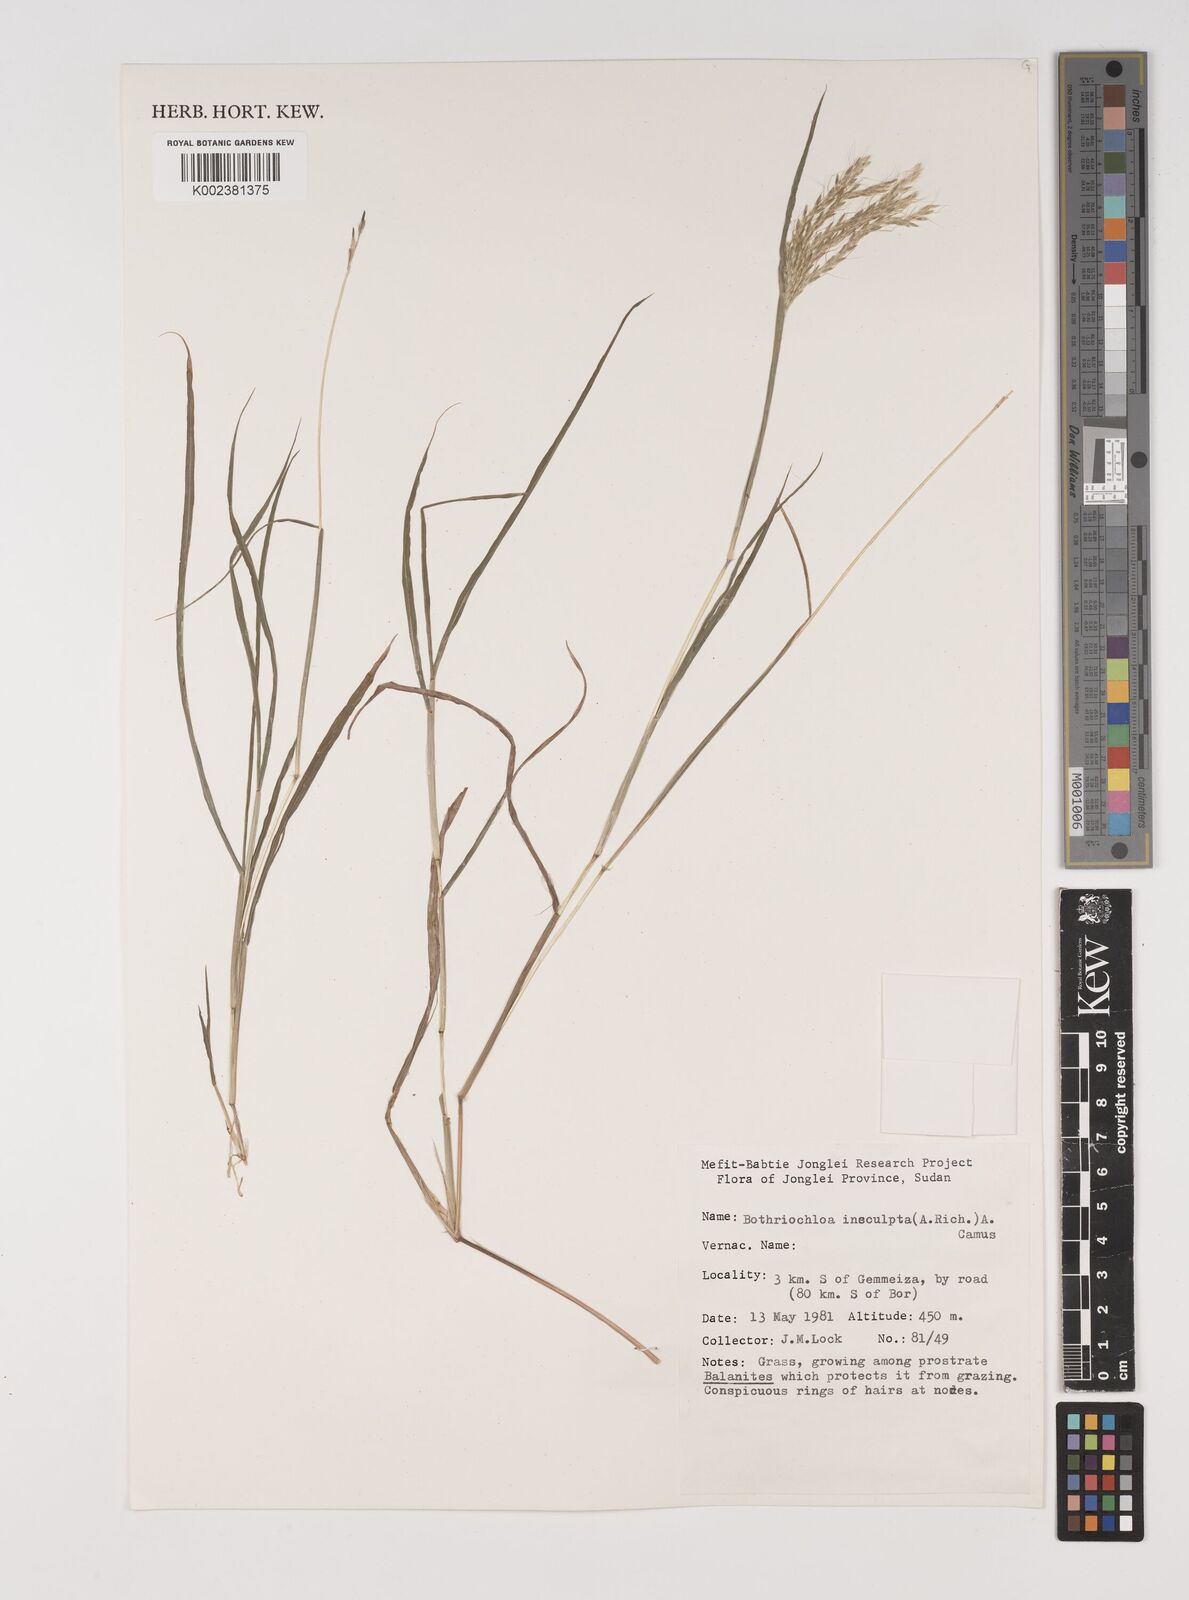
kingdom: Plantae
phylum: Tracheophyta
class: Liliopsida
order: Poales
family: Poaceae
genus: Bothriochloa
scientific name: Bothriochloa insculpta
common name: Creeping-bluegrass
